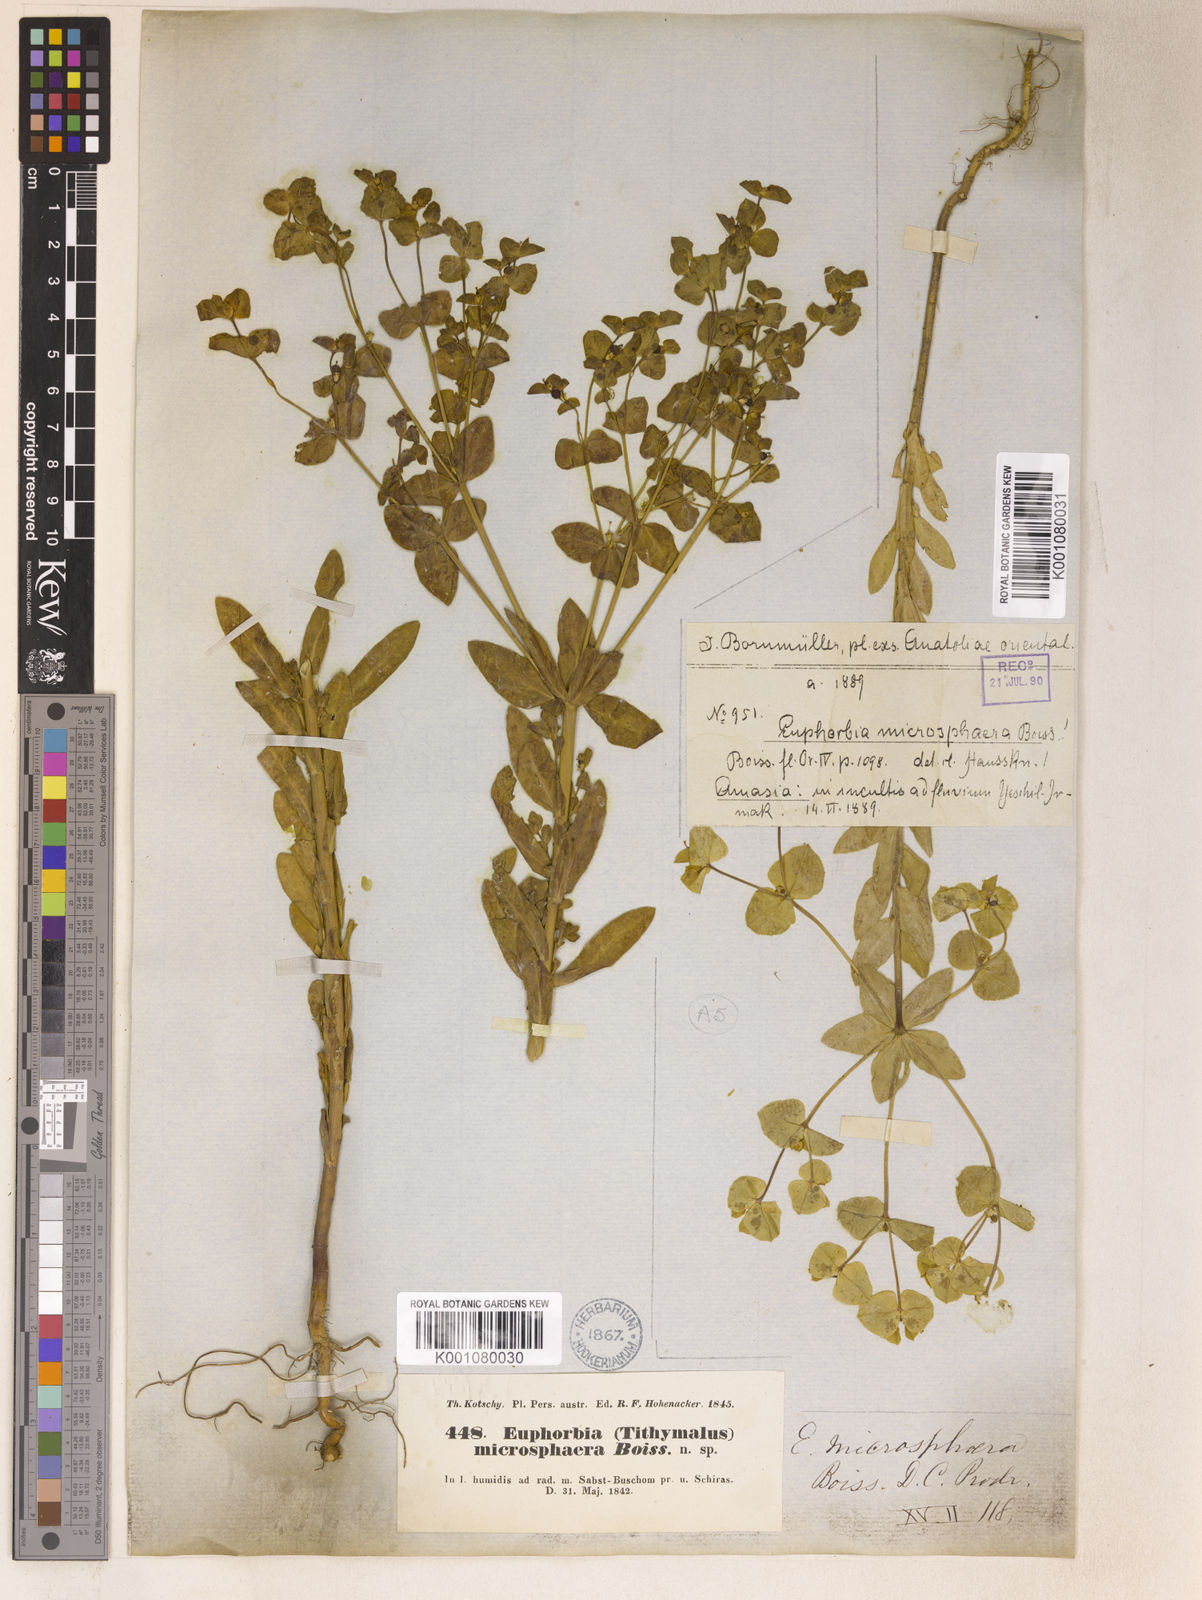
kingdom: Plantae
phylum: Tracheophyta
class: Magnoliopsida
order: Malpighiales
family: Euphorbiaceae
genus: Euphorbia
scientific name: Euphorbia microsphaera
